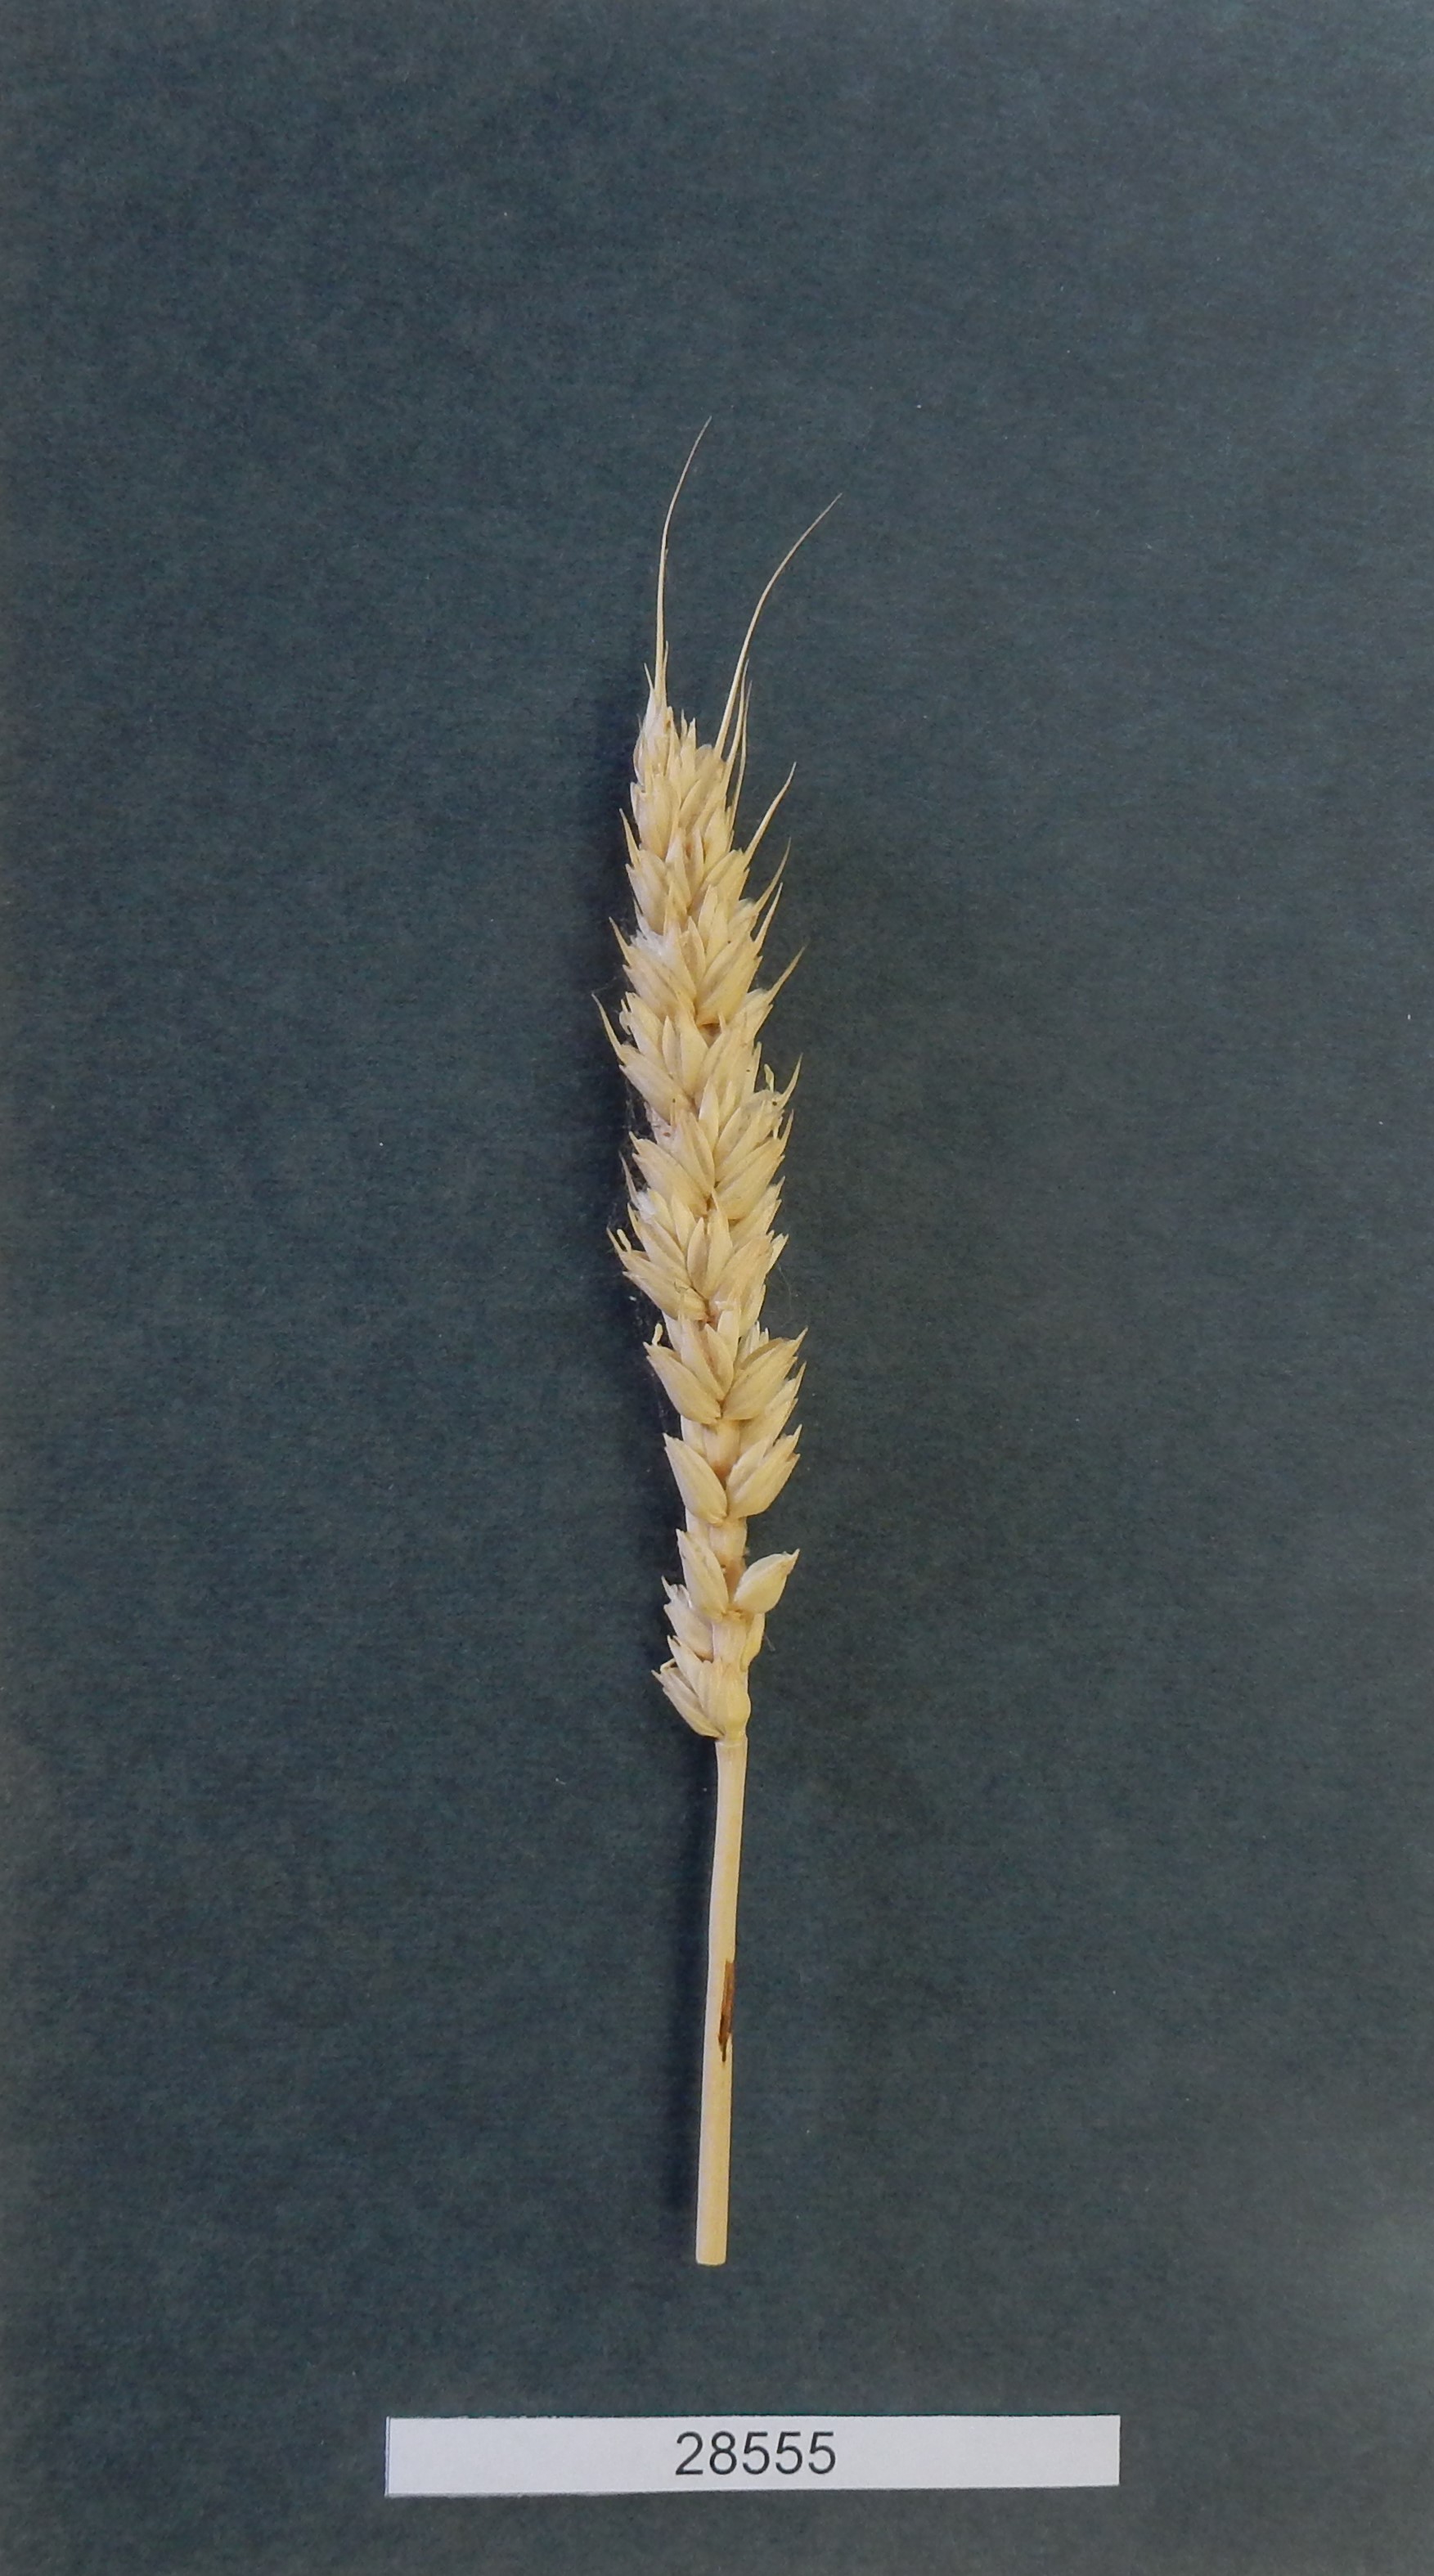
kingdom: Plantae
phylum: Tracheophyta
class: Liliopsida
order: Poales
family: Poaceae
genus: Triticum
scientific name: Triticum aestivum
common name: Common wheat
